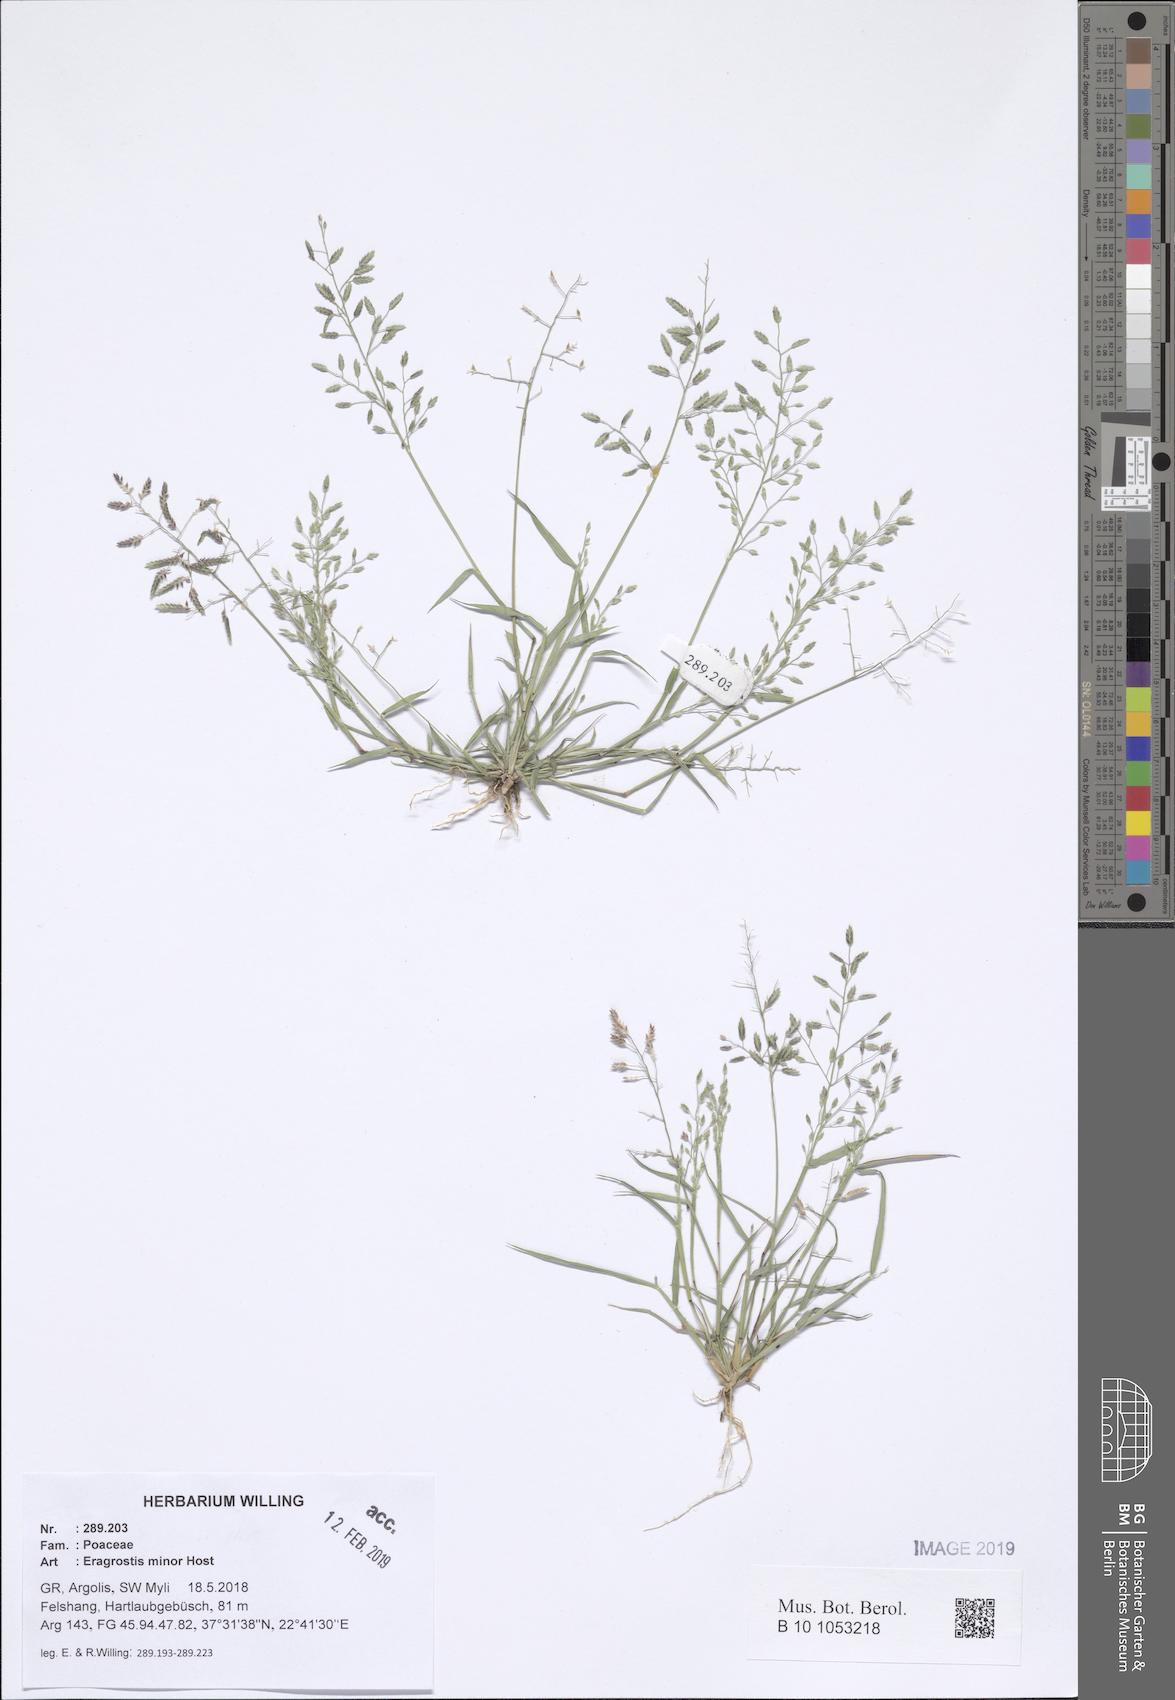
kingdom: Plantae
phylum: Tracheophyta
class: Liliopsida
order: Poales
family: Poaceae
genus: Eragrostis
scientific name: Eragrostis minor
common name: Small love-grass
